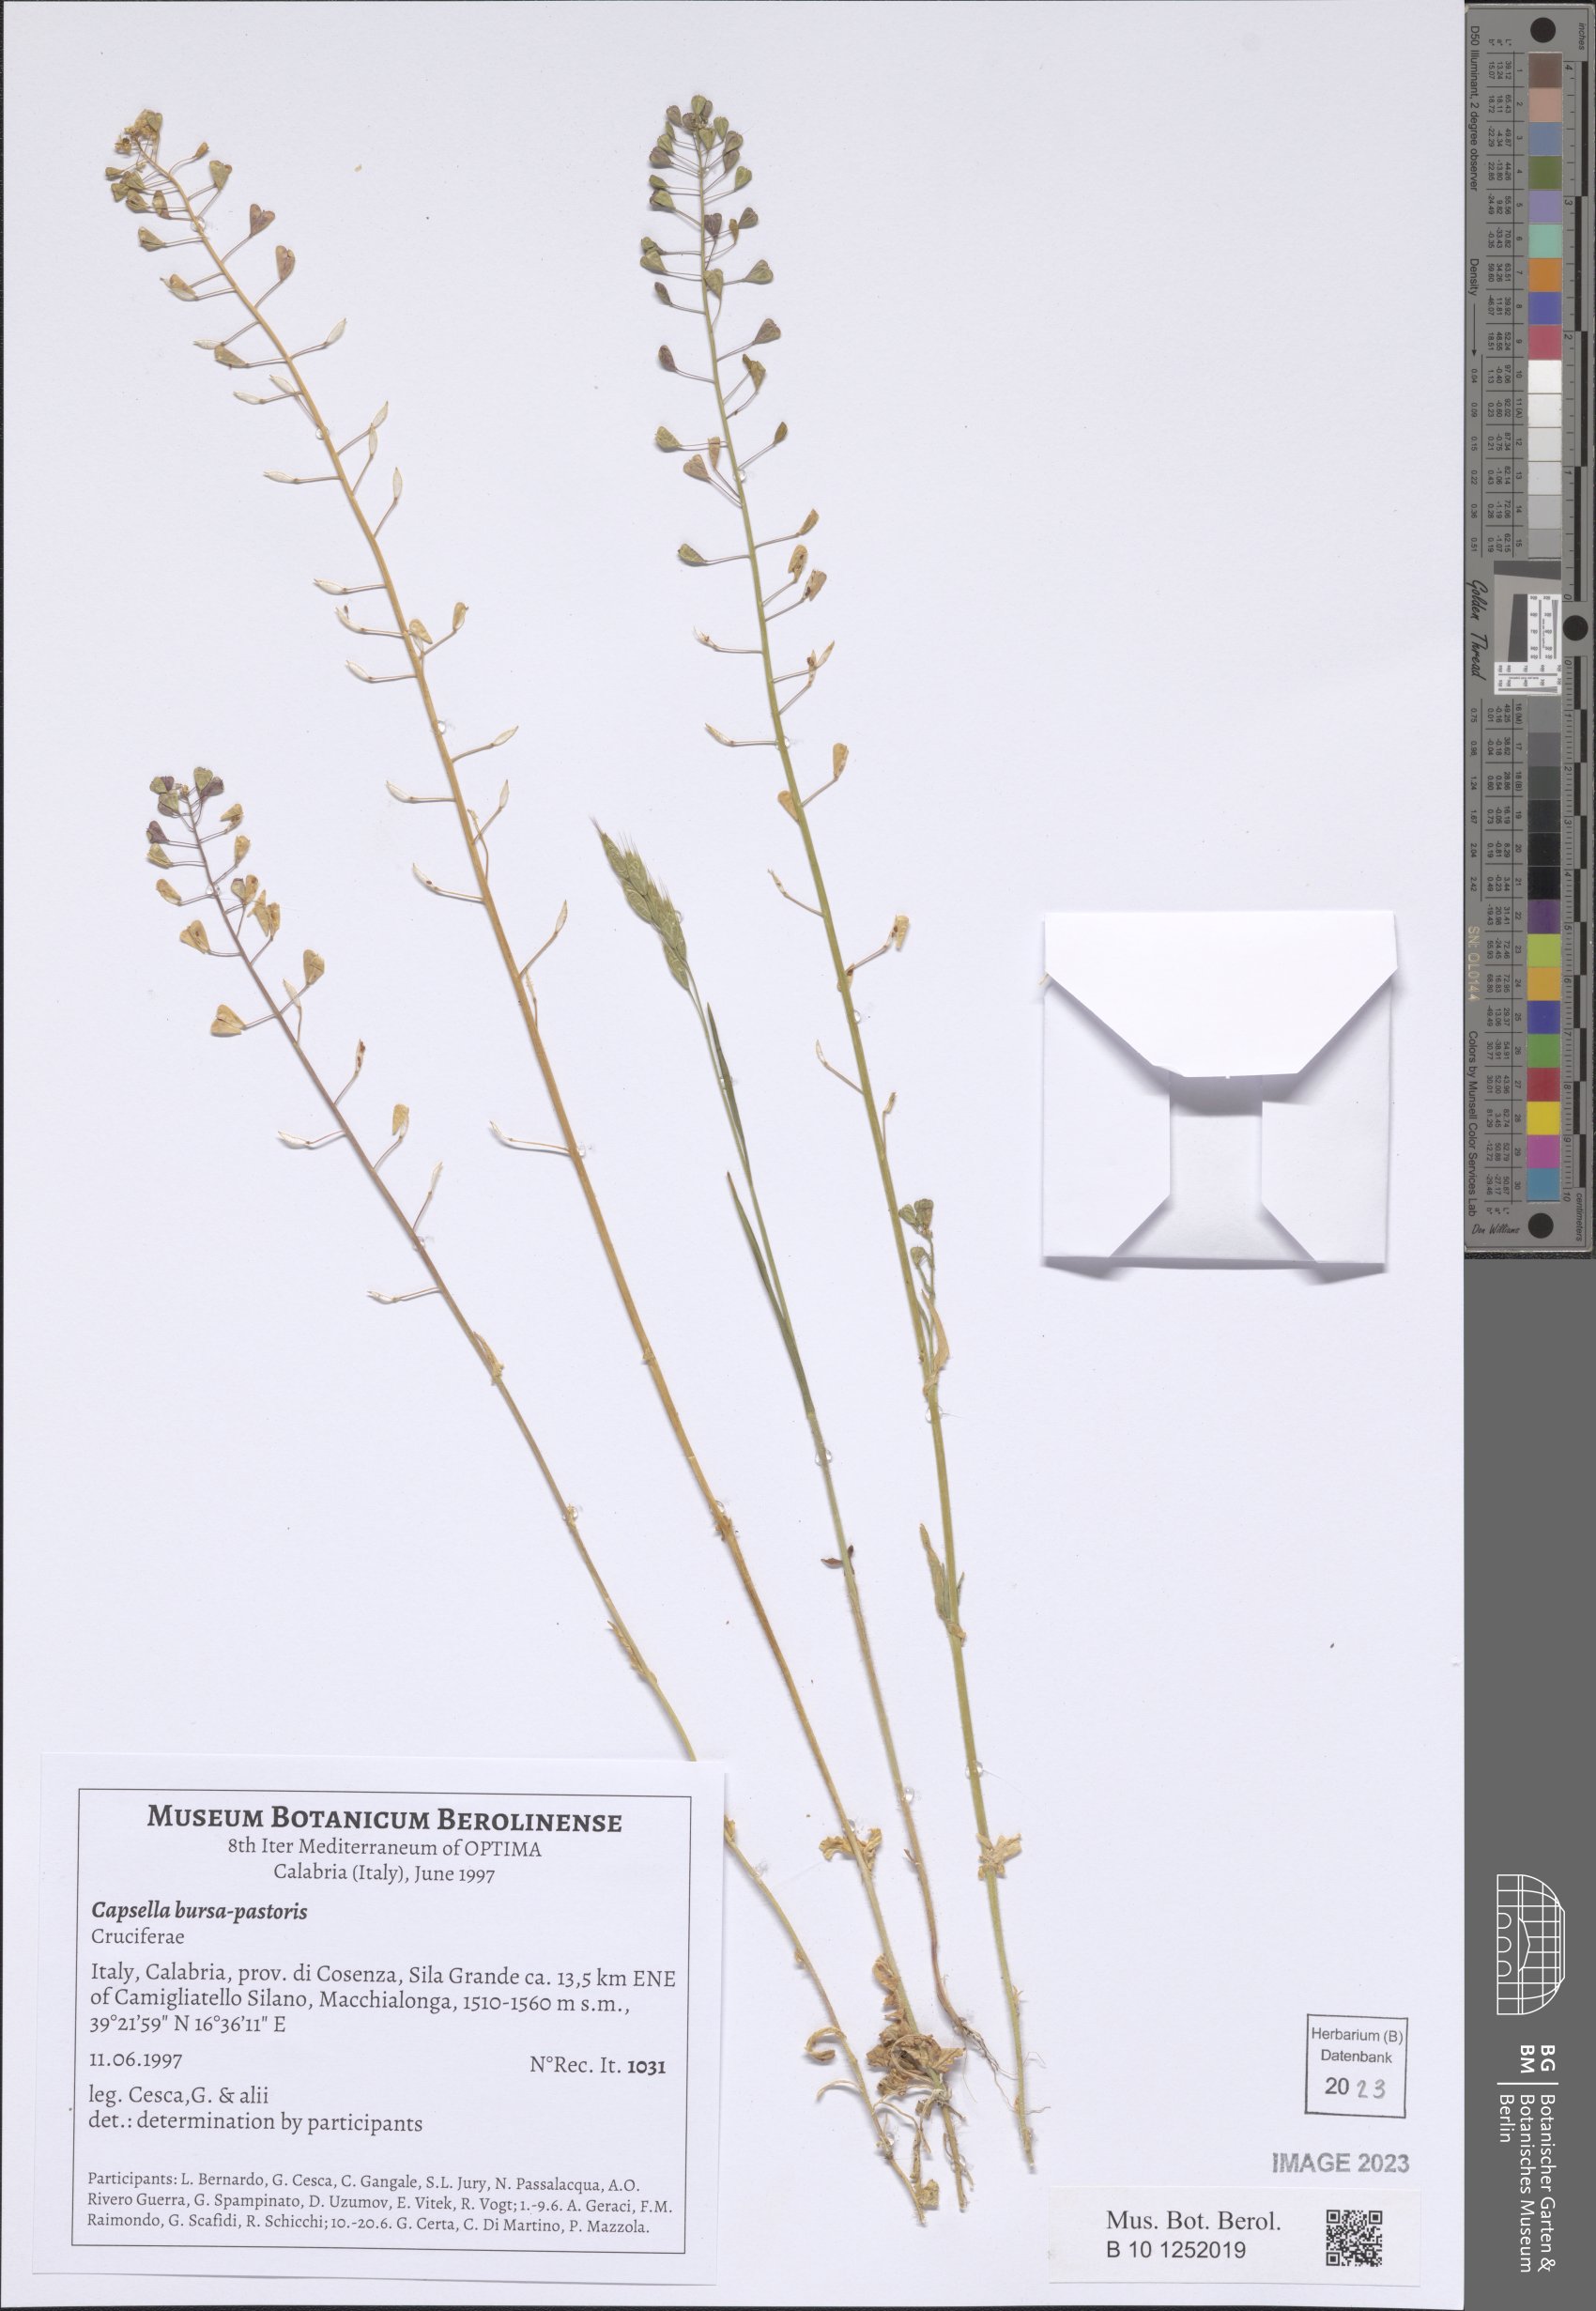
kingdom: Plantae
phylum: Tracheophyta
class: Magnoliopsida
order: Brassicales
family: Brassicaceae
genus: Capsella
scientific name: Capsella bursa-pastoris
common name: Shepherd's purse
